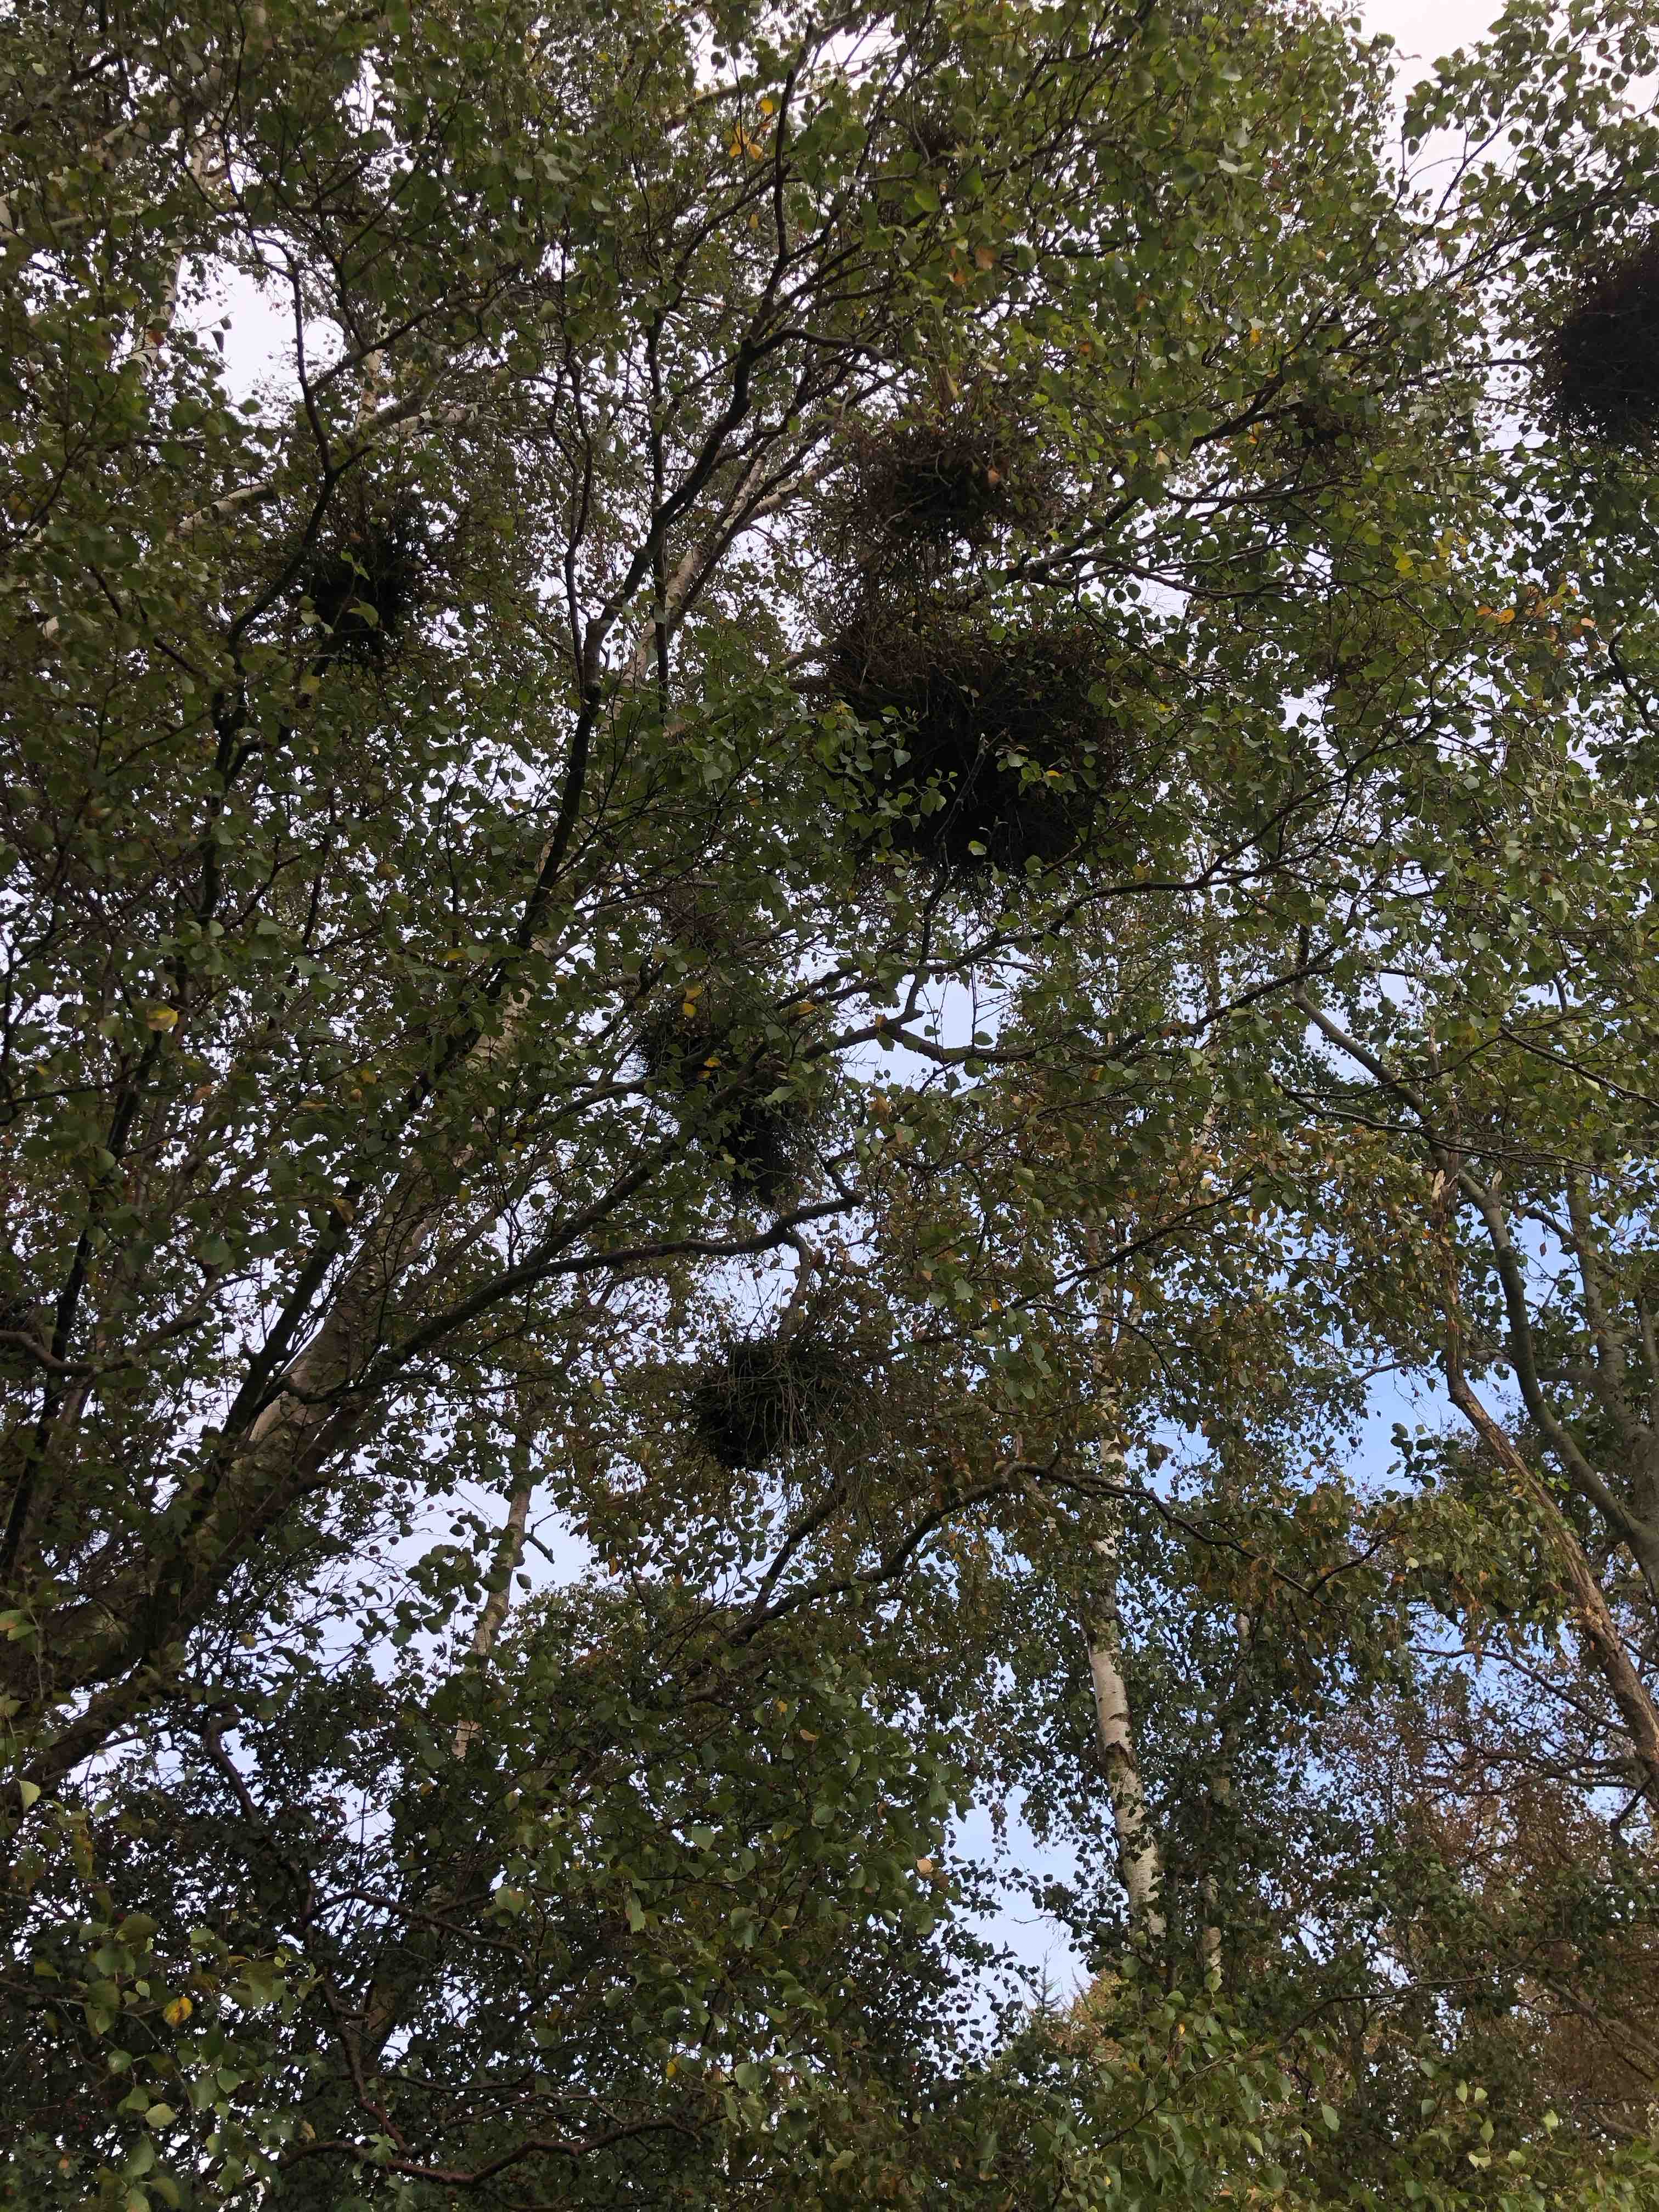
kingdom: Fungi
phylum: Ascomycota
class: Taphrinomycetes
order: Taphrinales
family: Taphrinaceae
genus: Taphrina
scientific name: Taphrina betulina
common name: hekse-sækdug
